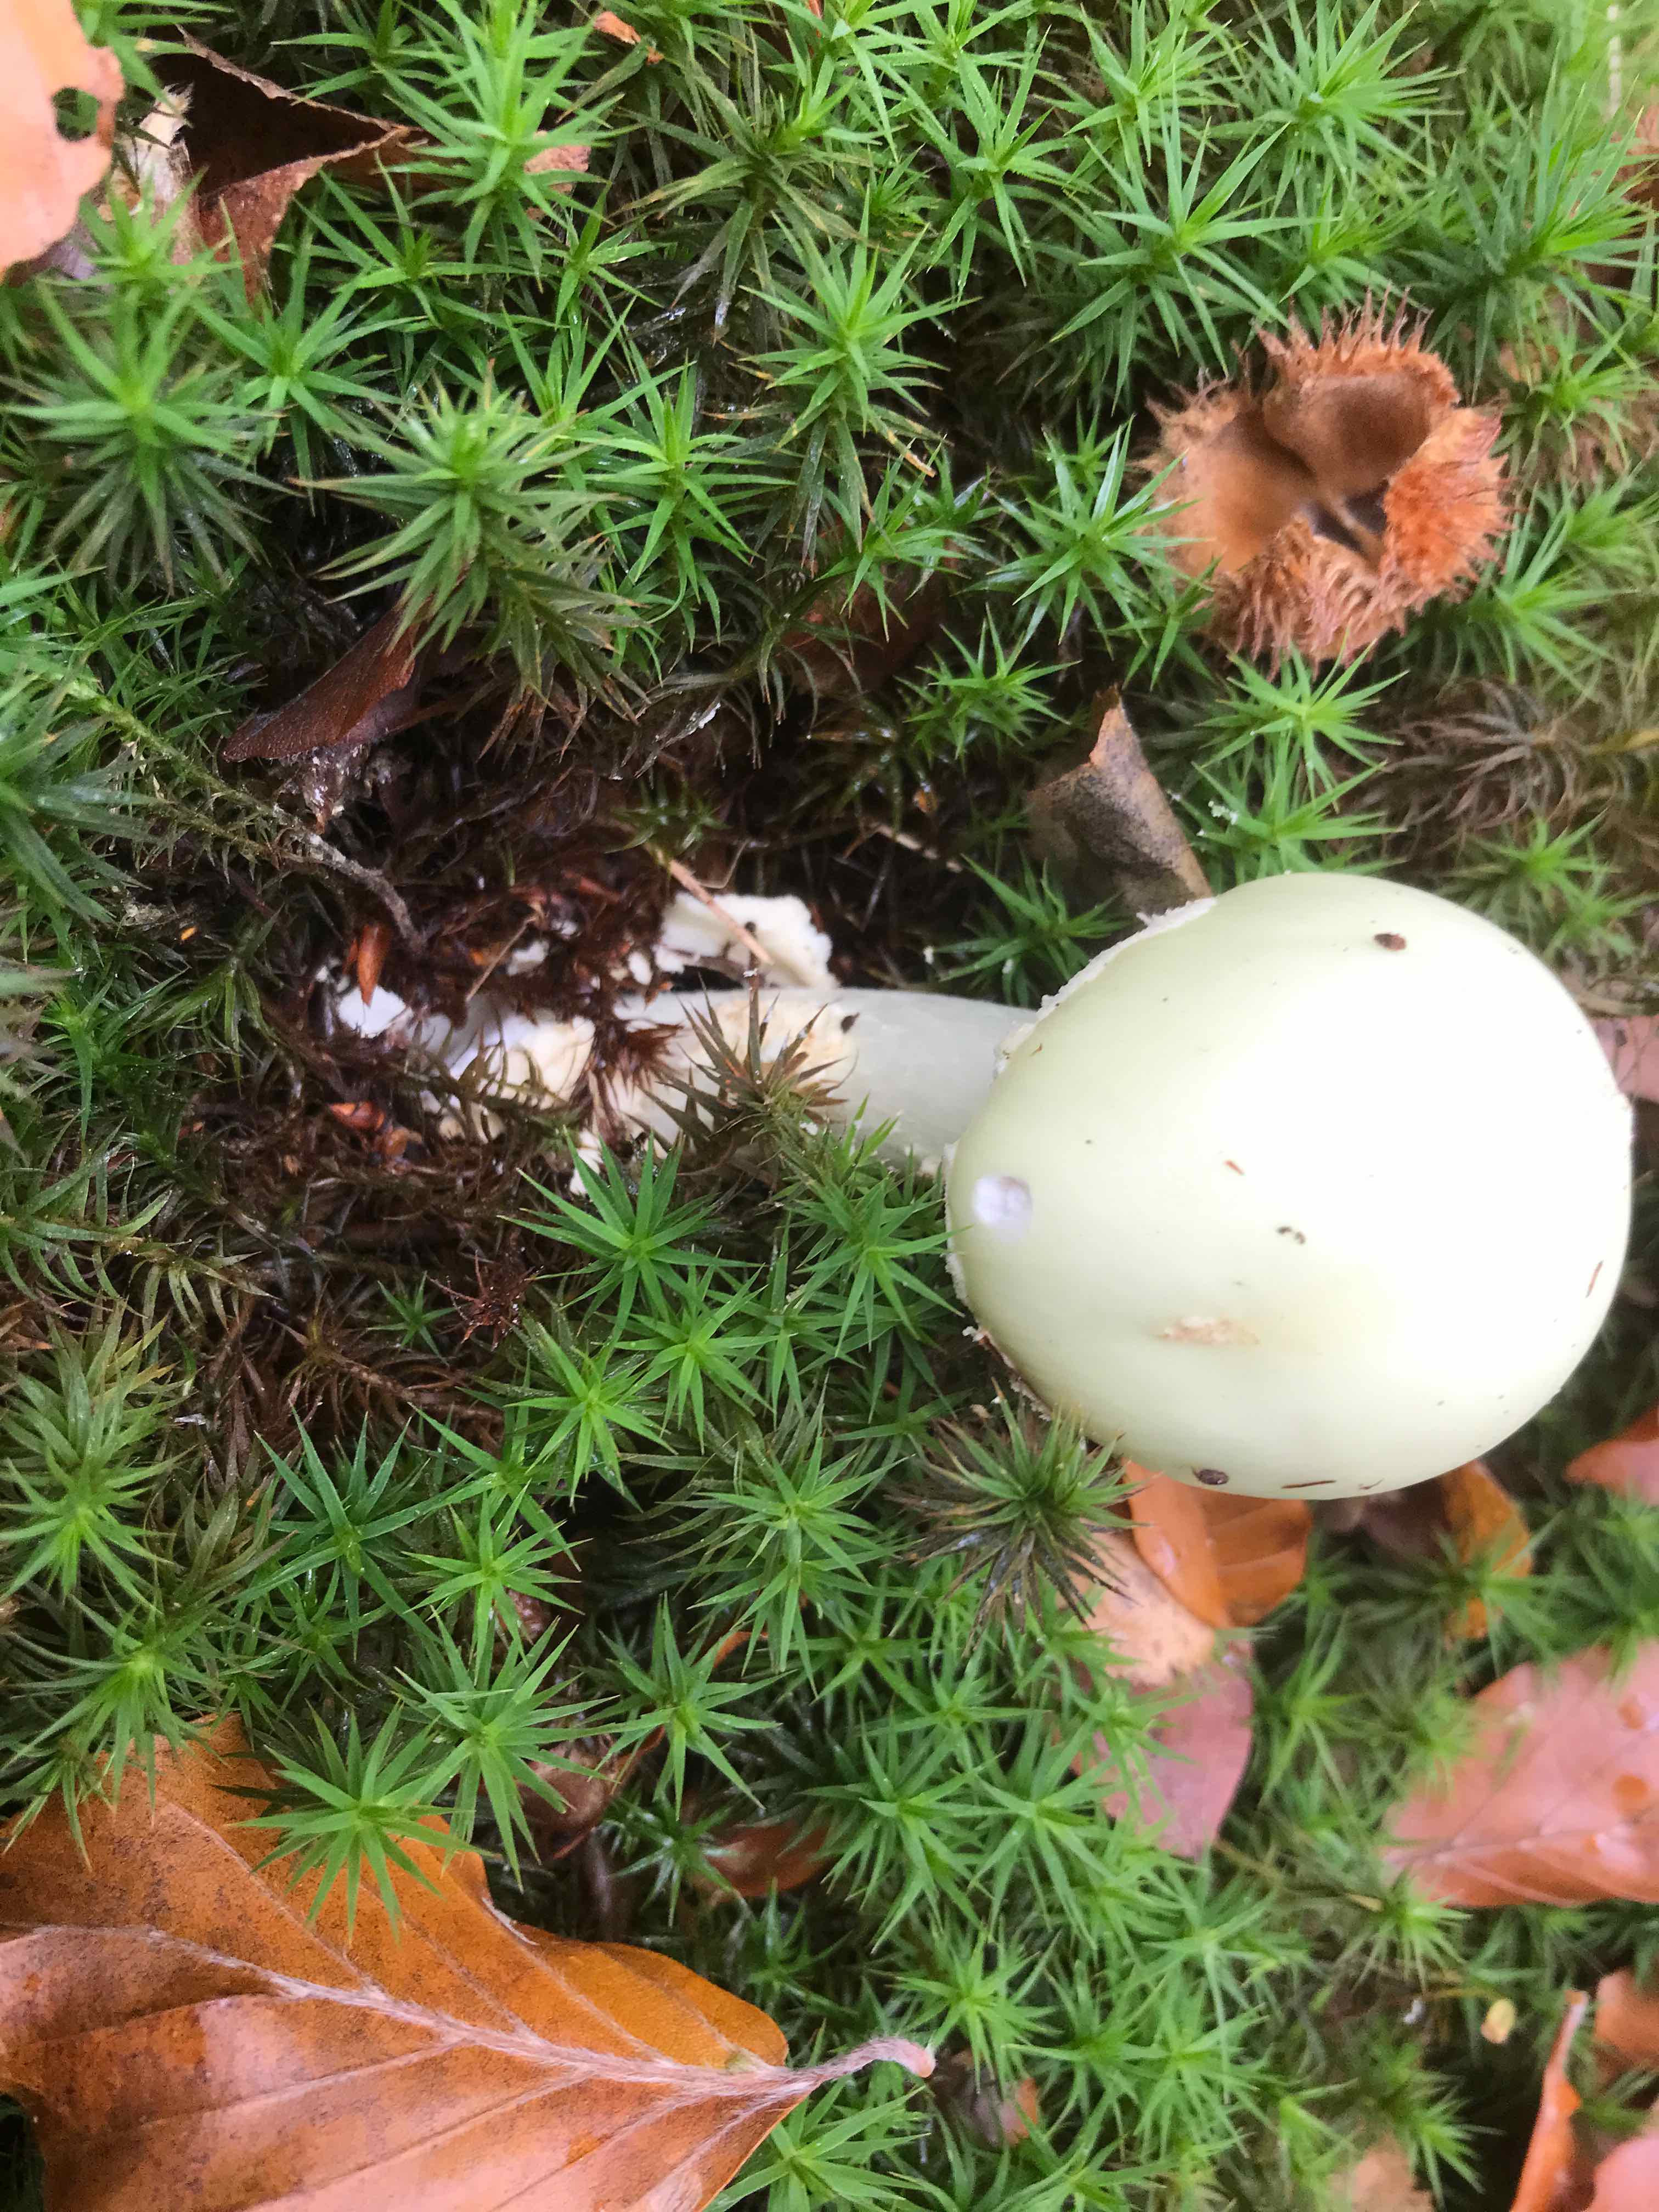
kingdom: Fungi
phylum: Basidiomycota
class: Agaricomycetes
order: Agaricales
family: Amanitaceae
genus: Amanita
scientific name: Amanita citrina
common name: kugleknoldet fluesvamp
